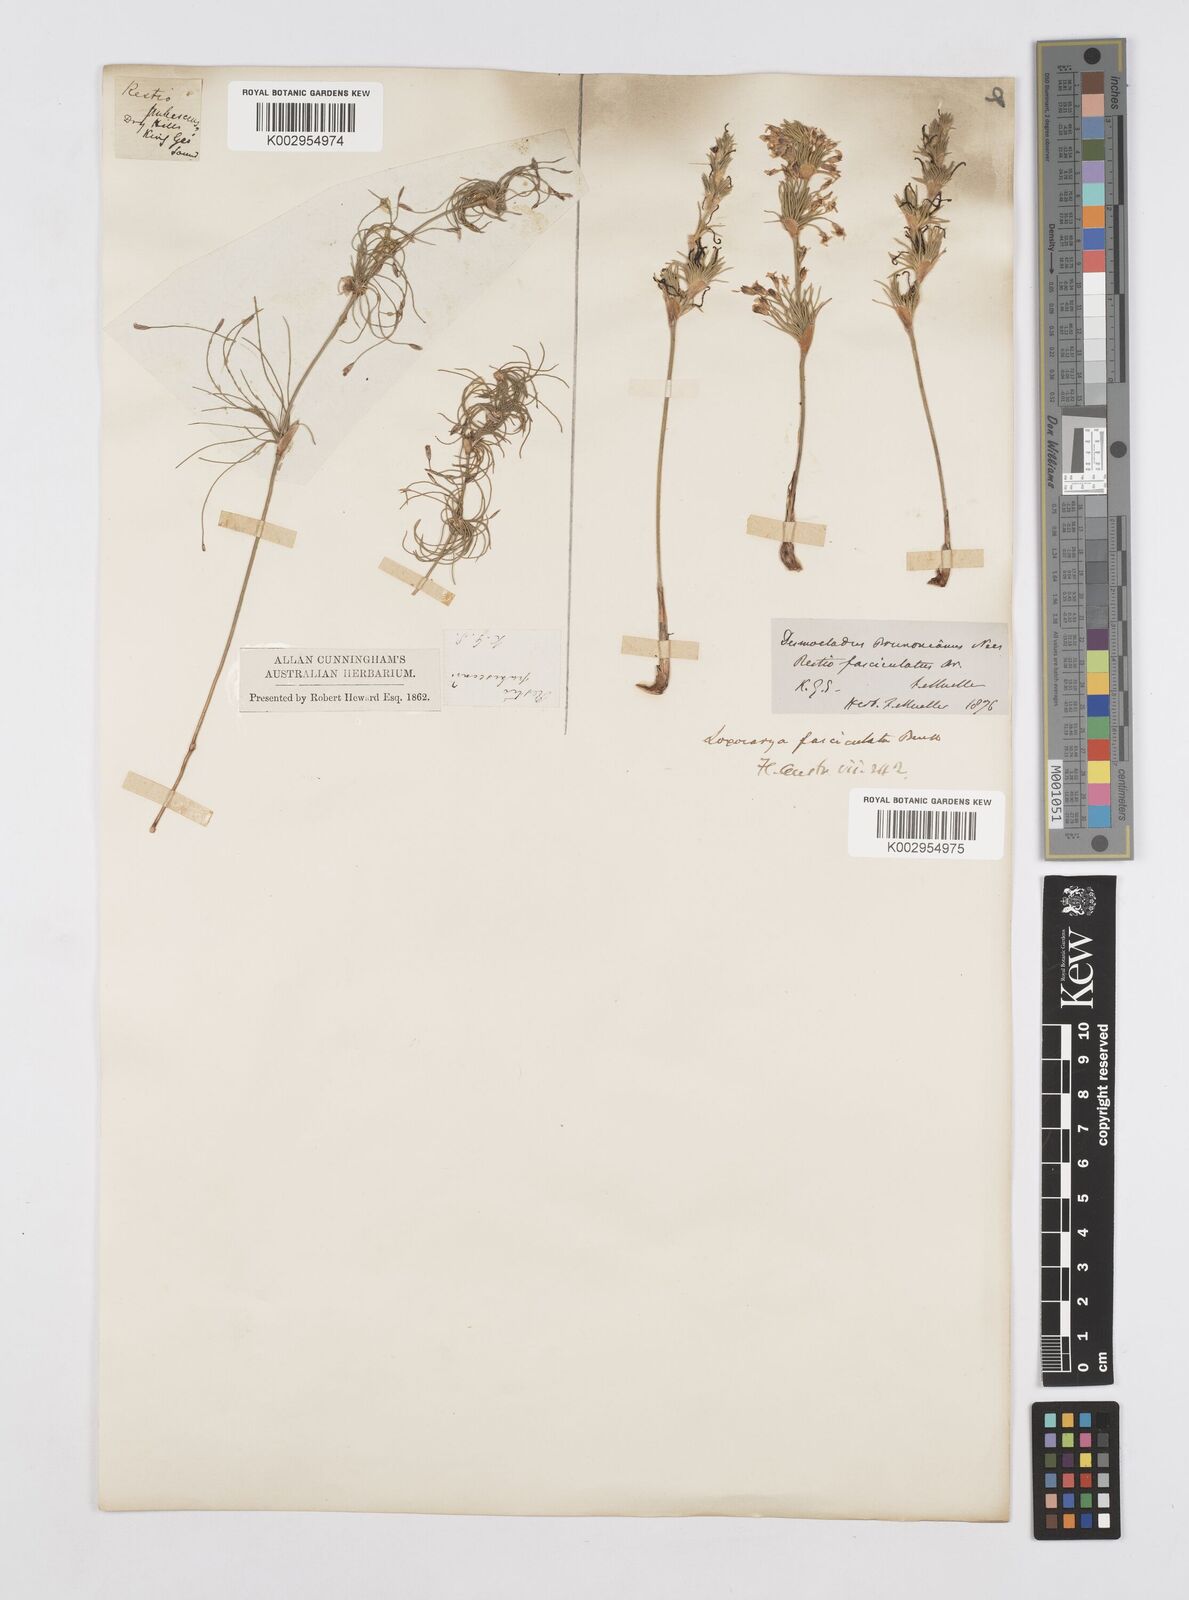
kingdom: Plantae
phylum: Tracheophyta
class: Liliopsida
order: Poales
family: Restionaceae
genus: Desmocladus
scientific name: Desmocladus fasciculatus
